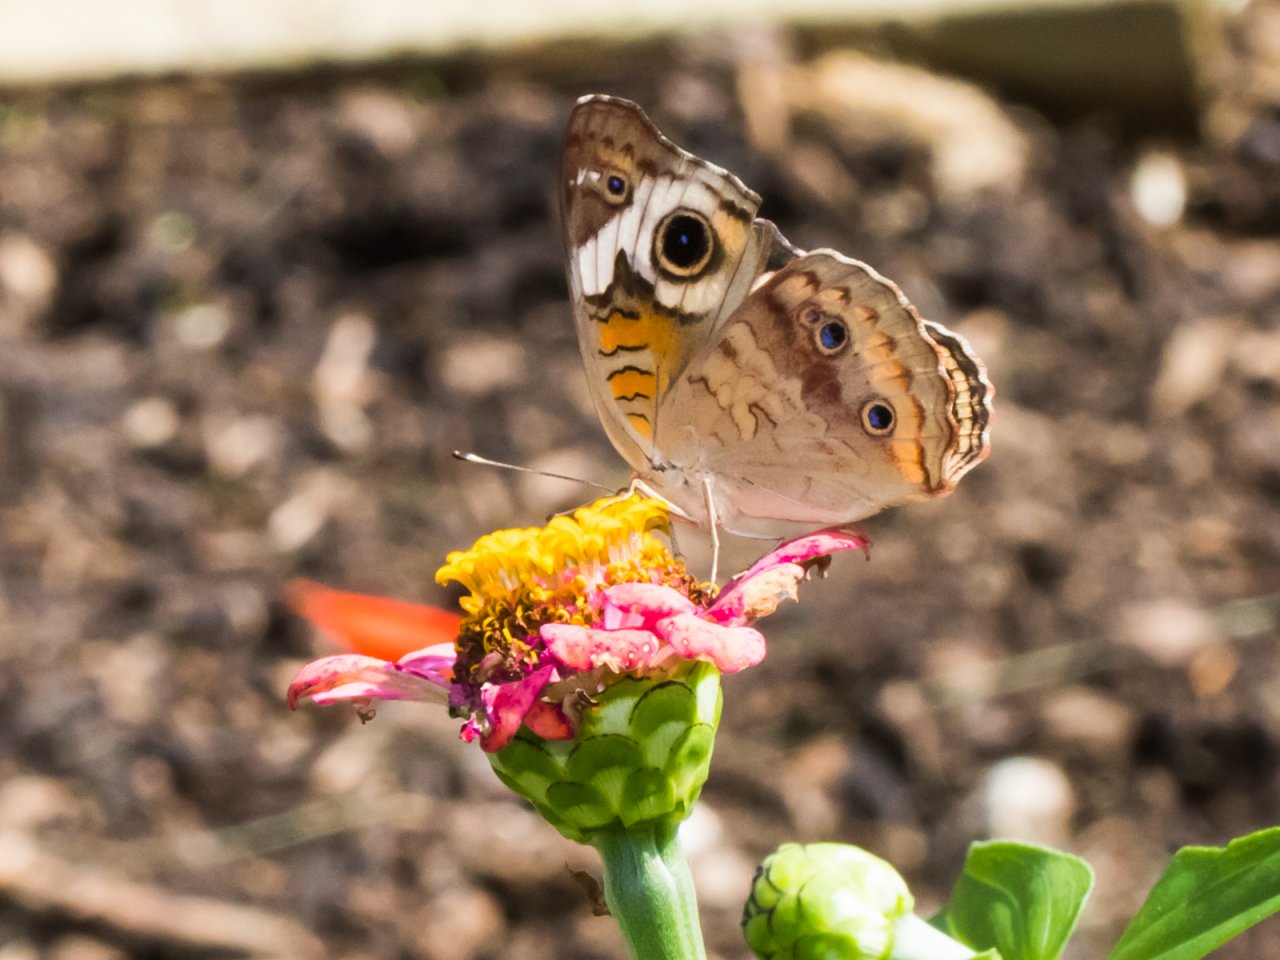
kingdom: Animalia
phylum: Arthropoda
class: Insecta
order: Lepidoptera
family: Nymphalidae
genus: Junonia
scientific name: Junonia coenia
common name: Common Buckeye
